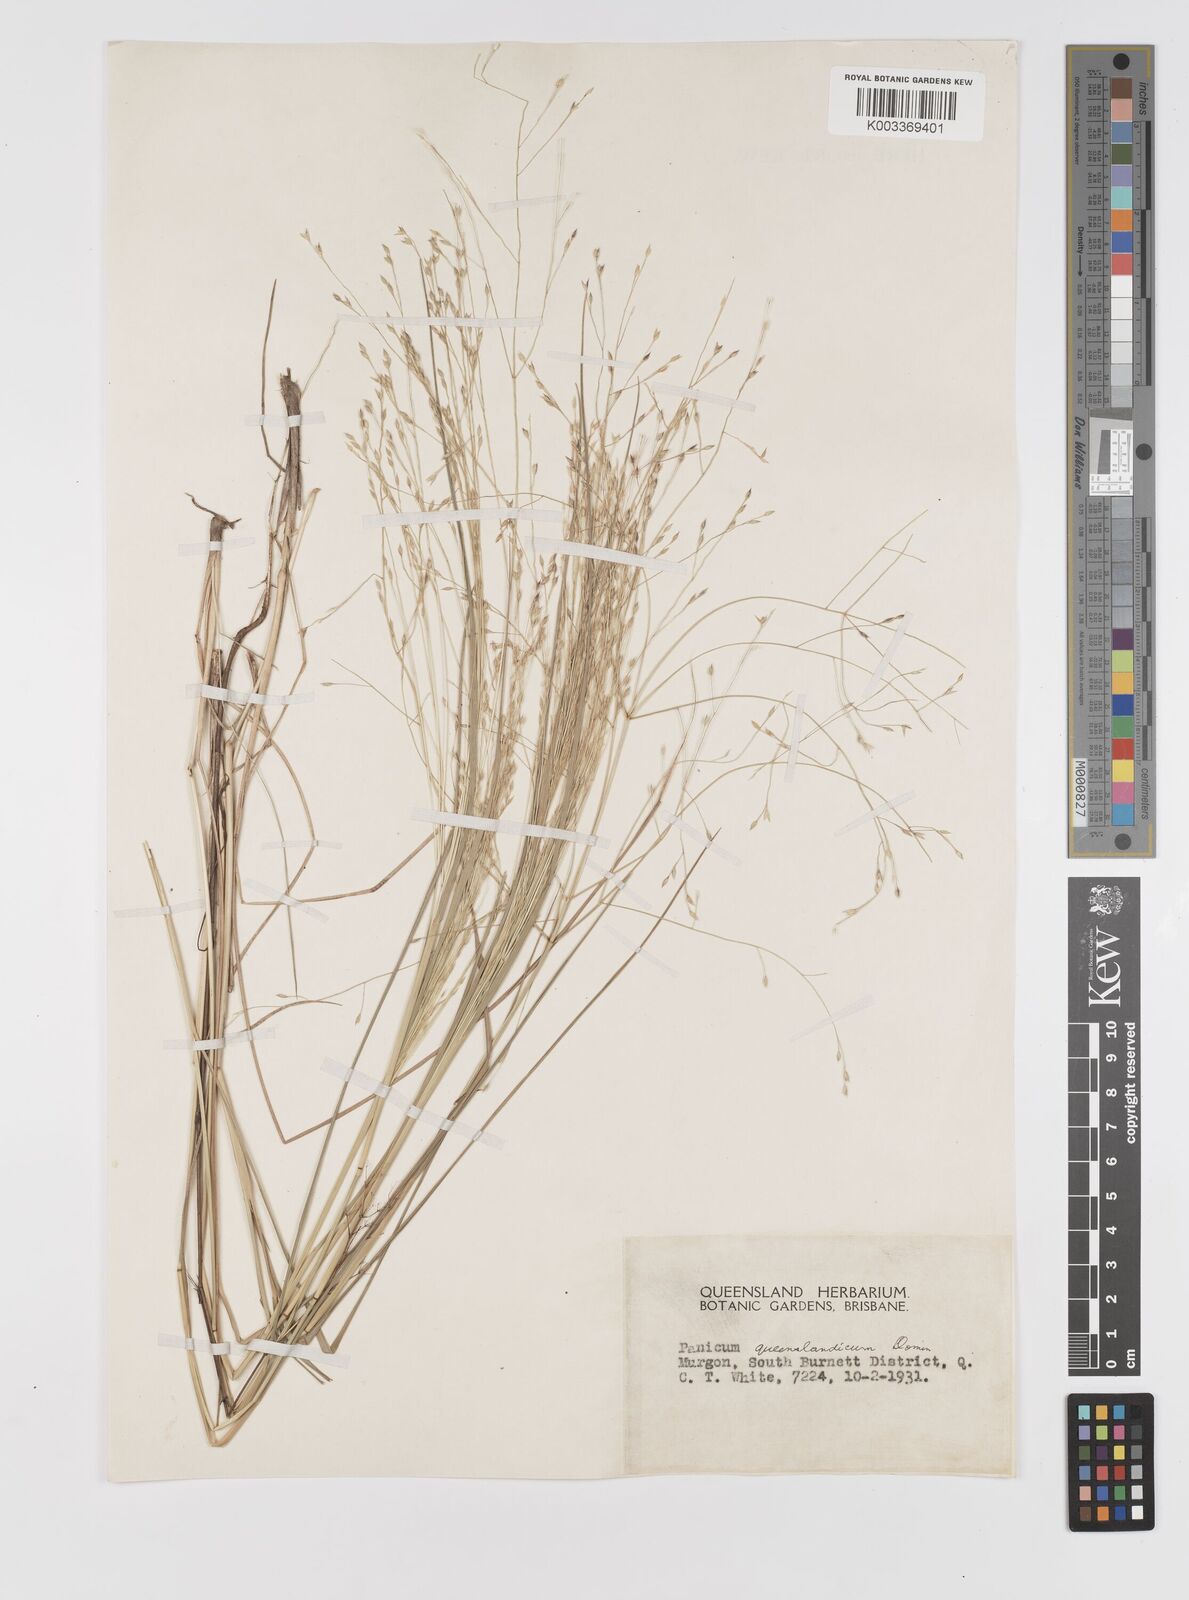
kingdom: Plantae
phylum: Tracheophyta
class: Liliopsida
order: Poales
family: Poaceae
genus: Panicum
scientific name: Panicum queenslandicum
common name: Yabila grass
